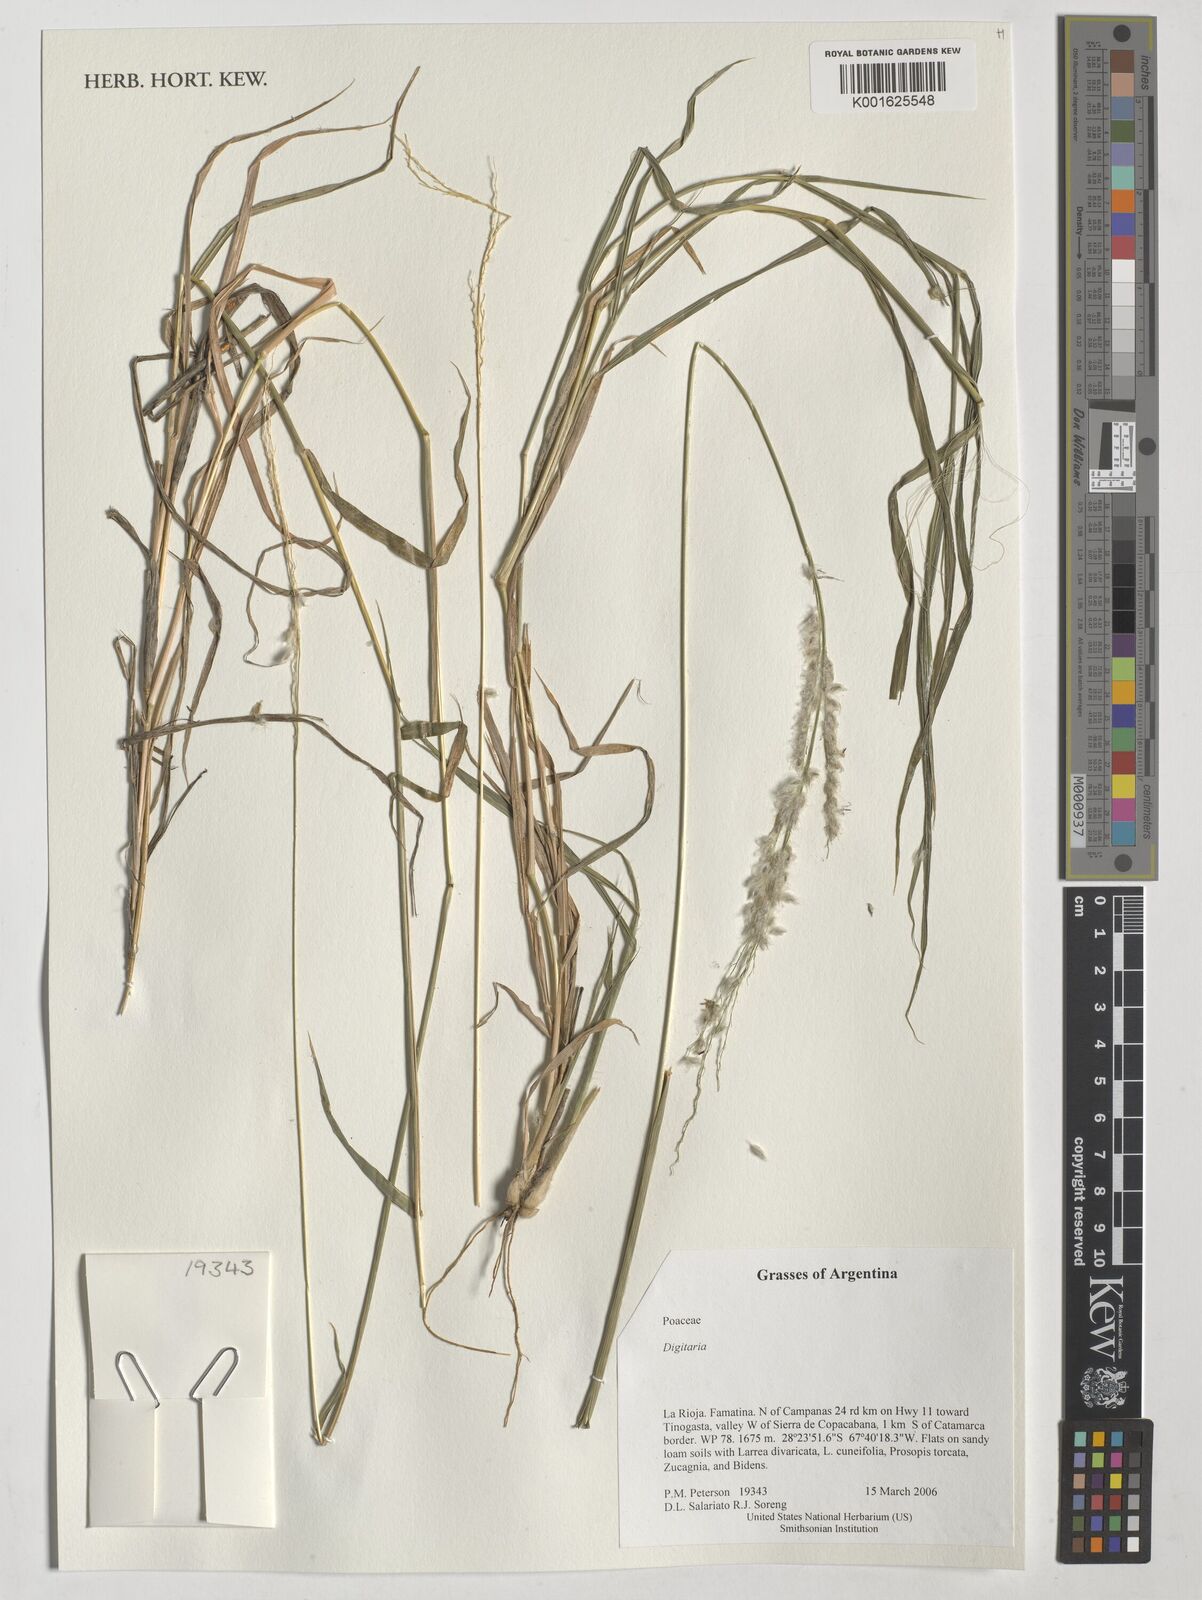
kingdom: Plantae
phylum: Tracheophyta
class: Liliopsida
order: Poales
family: Poaceae
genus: Digitaria
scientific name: Digitaria
